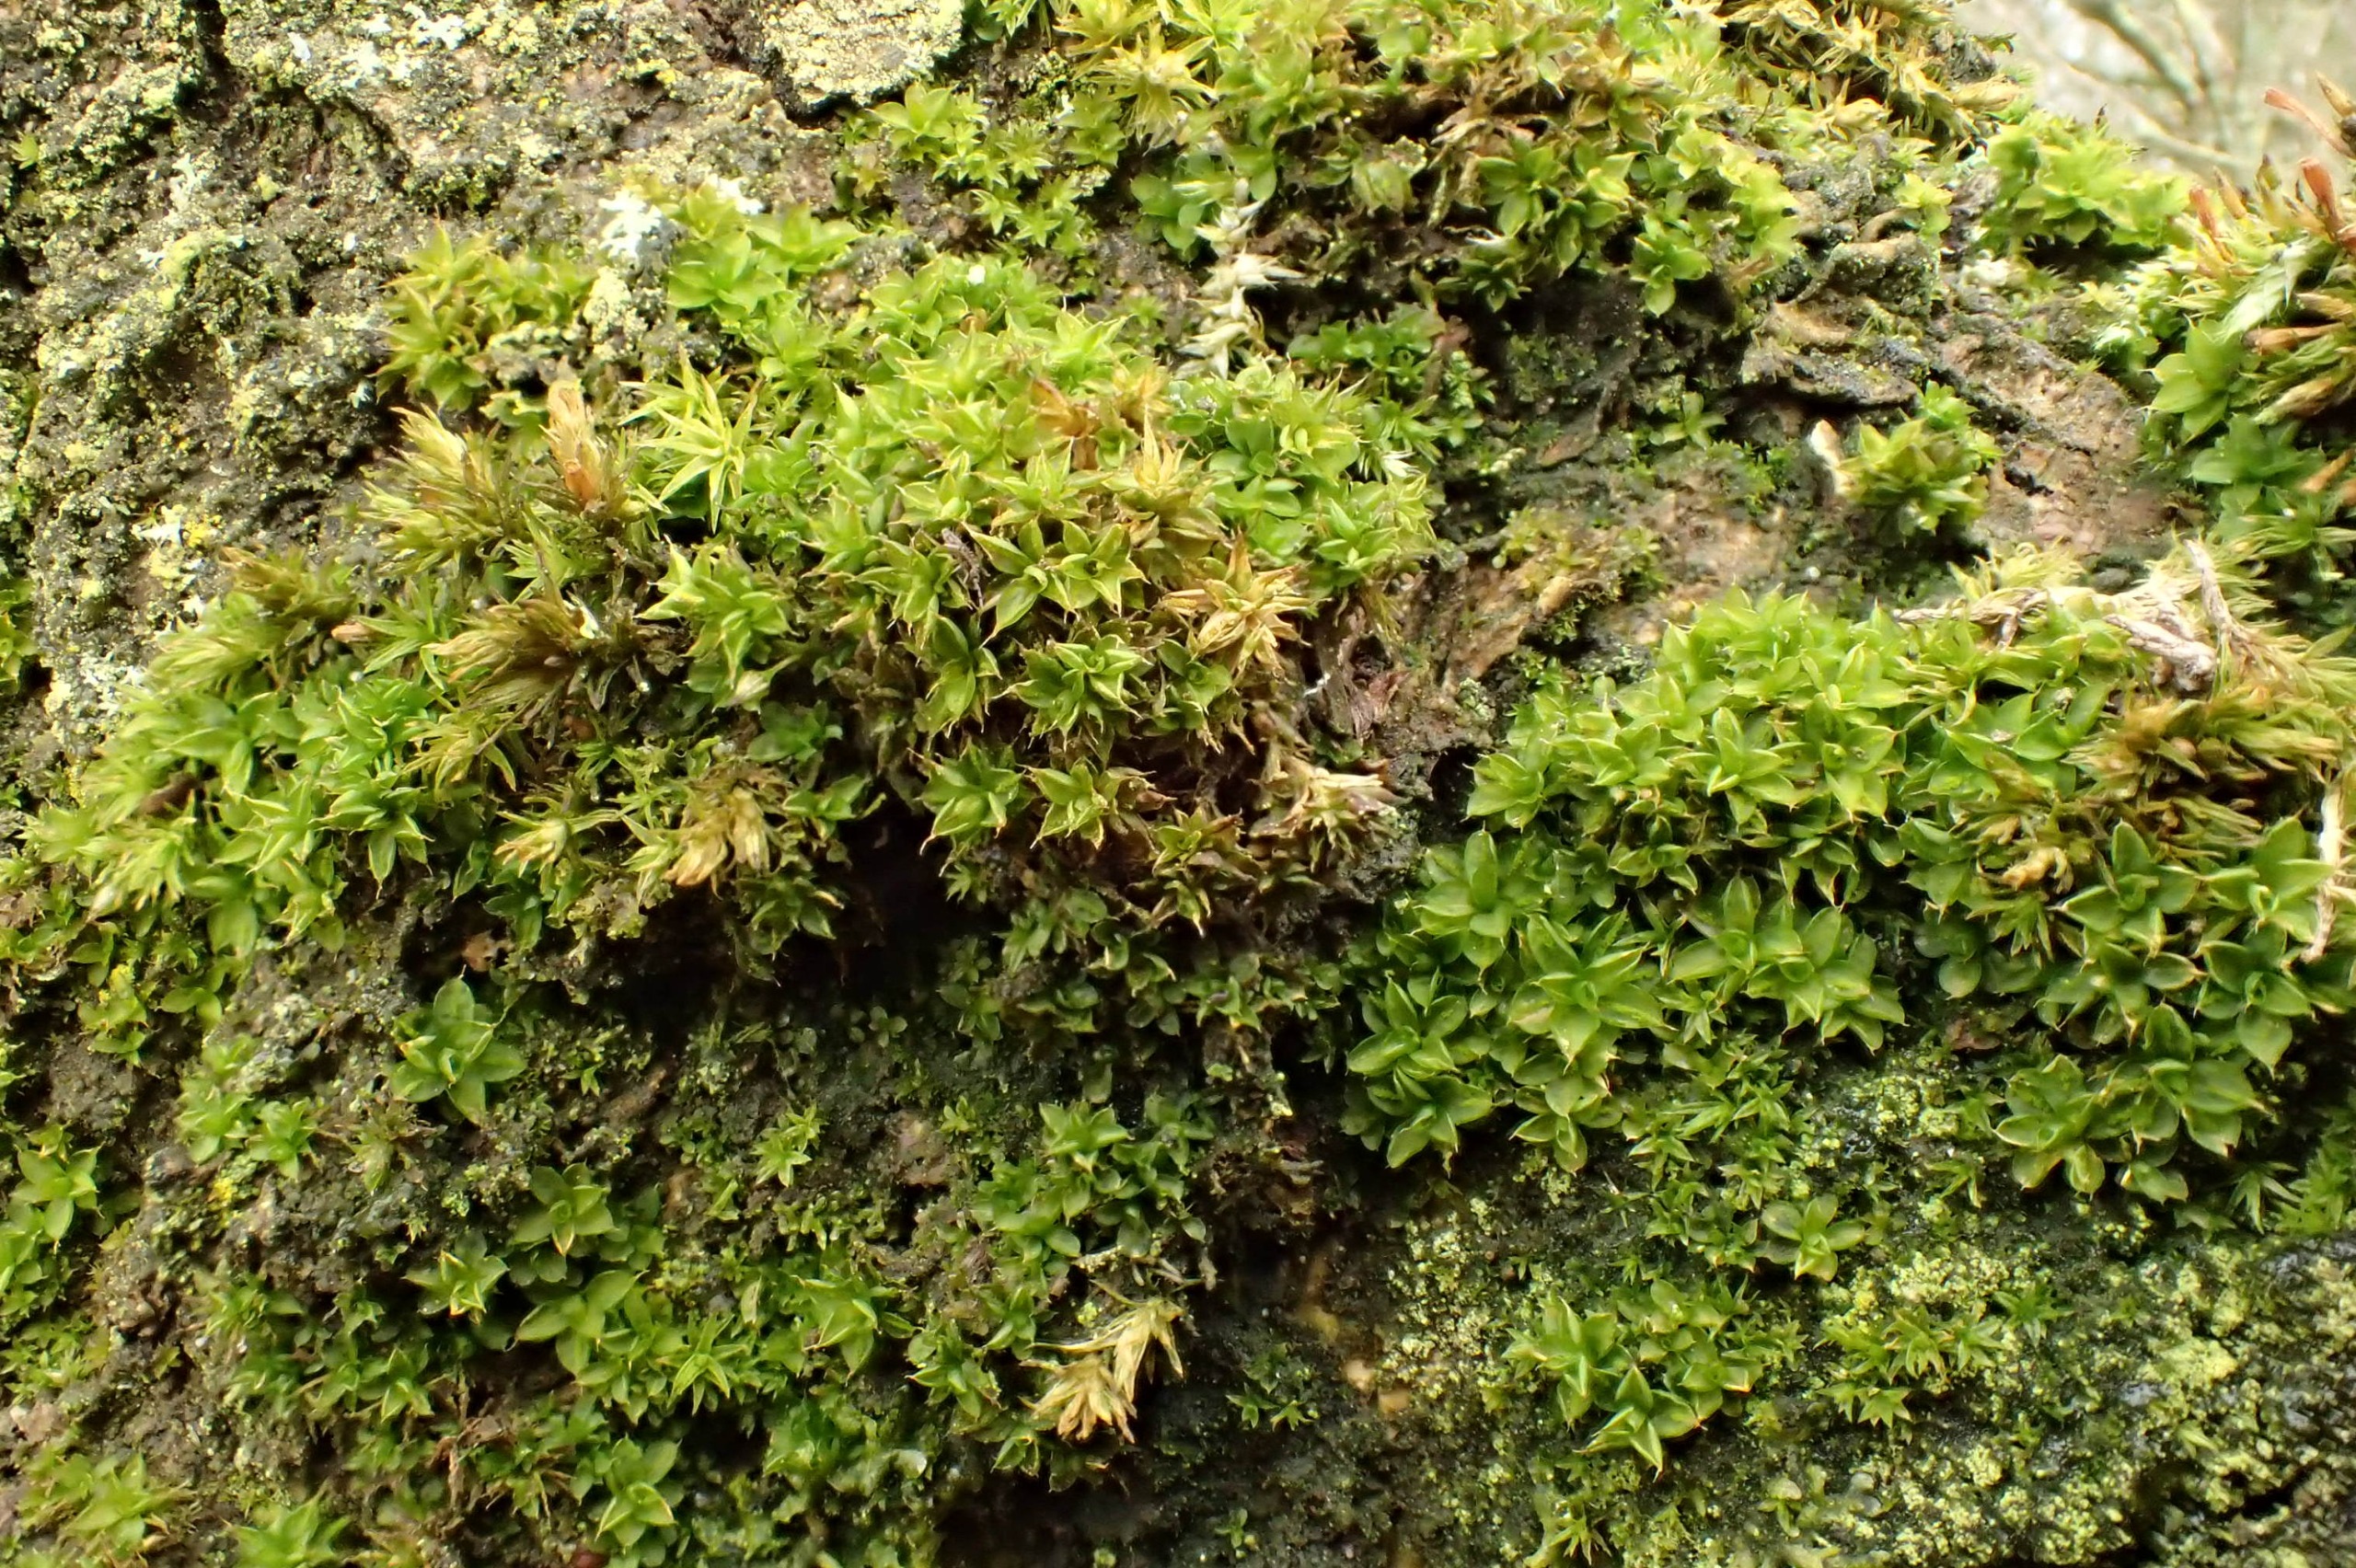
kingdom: Plantae
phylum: Bryophyta
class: Bryopsida
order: Pottiales
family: Pottiaceae
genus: Syntrichia
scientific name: Syntrichia papillosa
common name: Bark-hårstjerne
